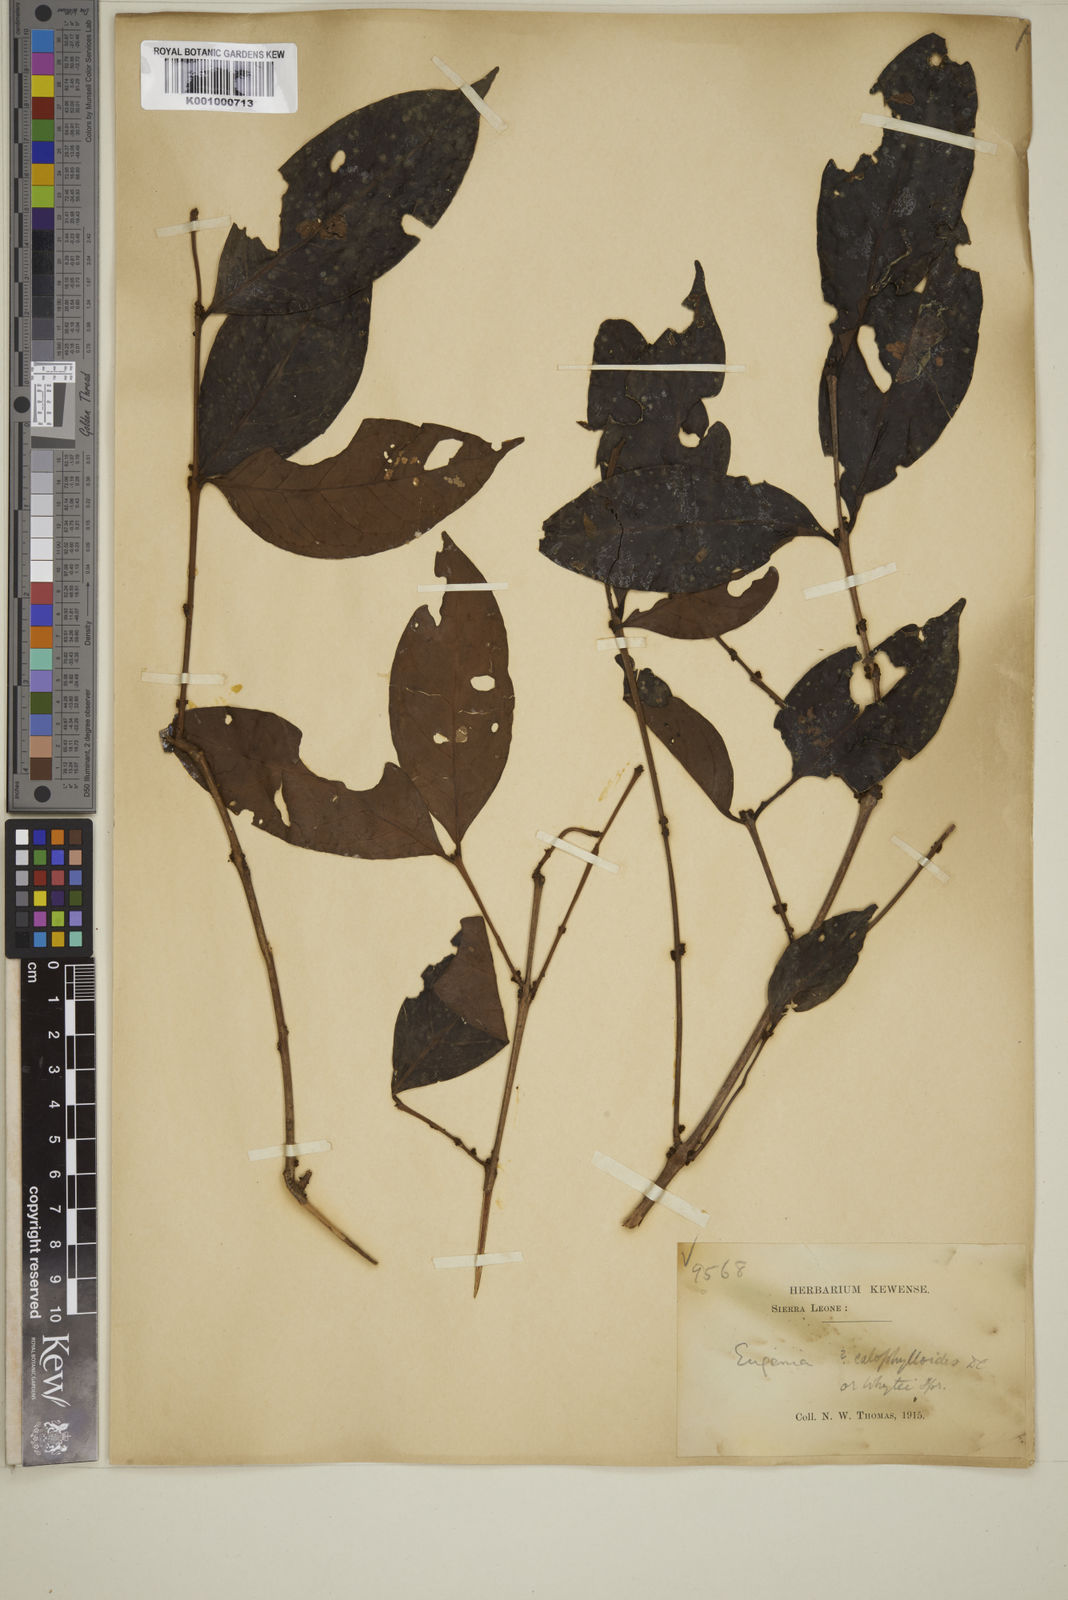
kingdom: Plantae
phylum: Tracheophyta
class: Magnoliopsida
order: Myrtales
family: Myrtaceae
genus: Eugenia
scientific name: Eugenia calophylloides
